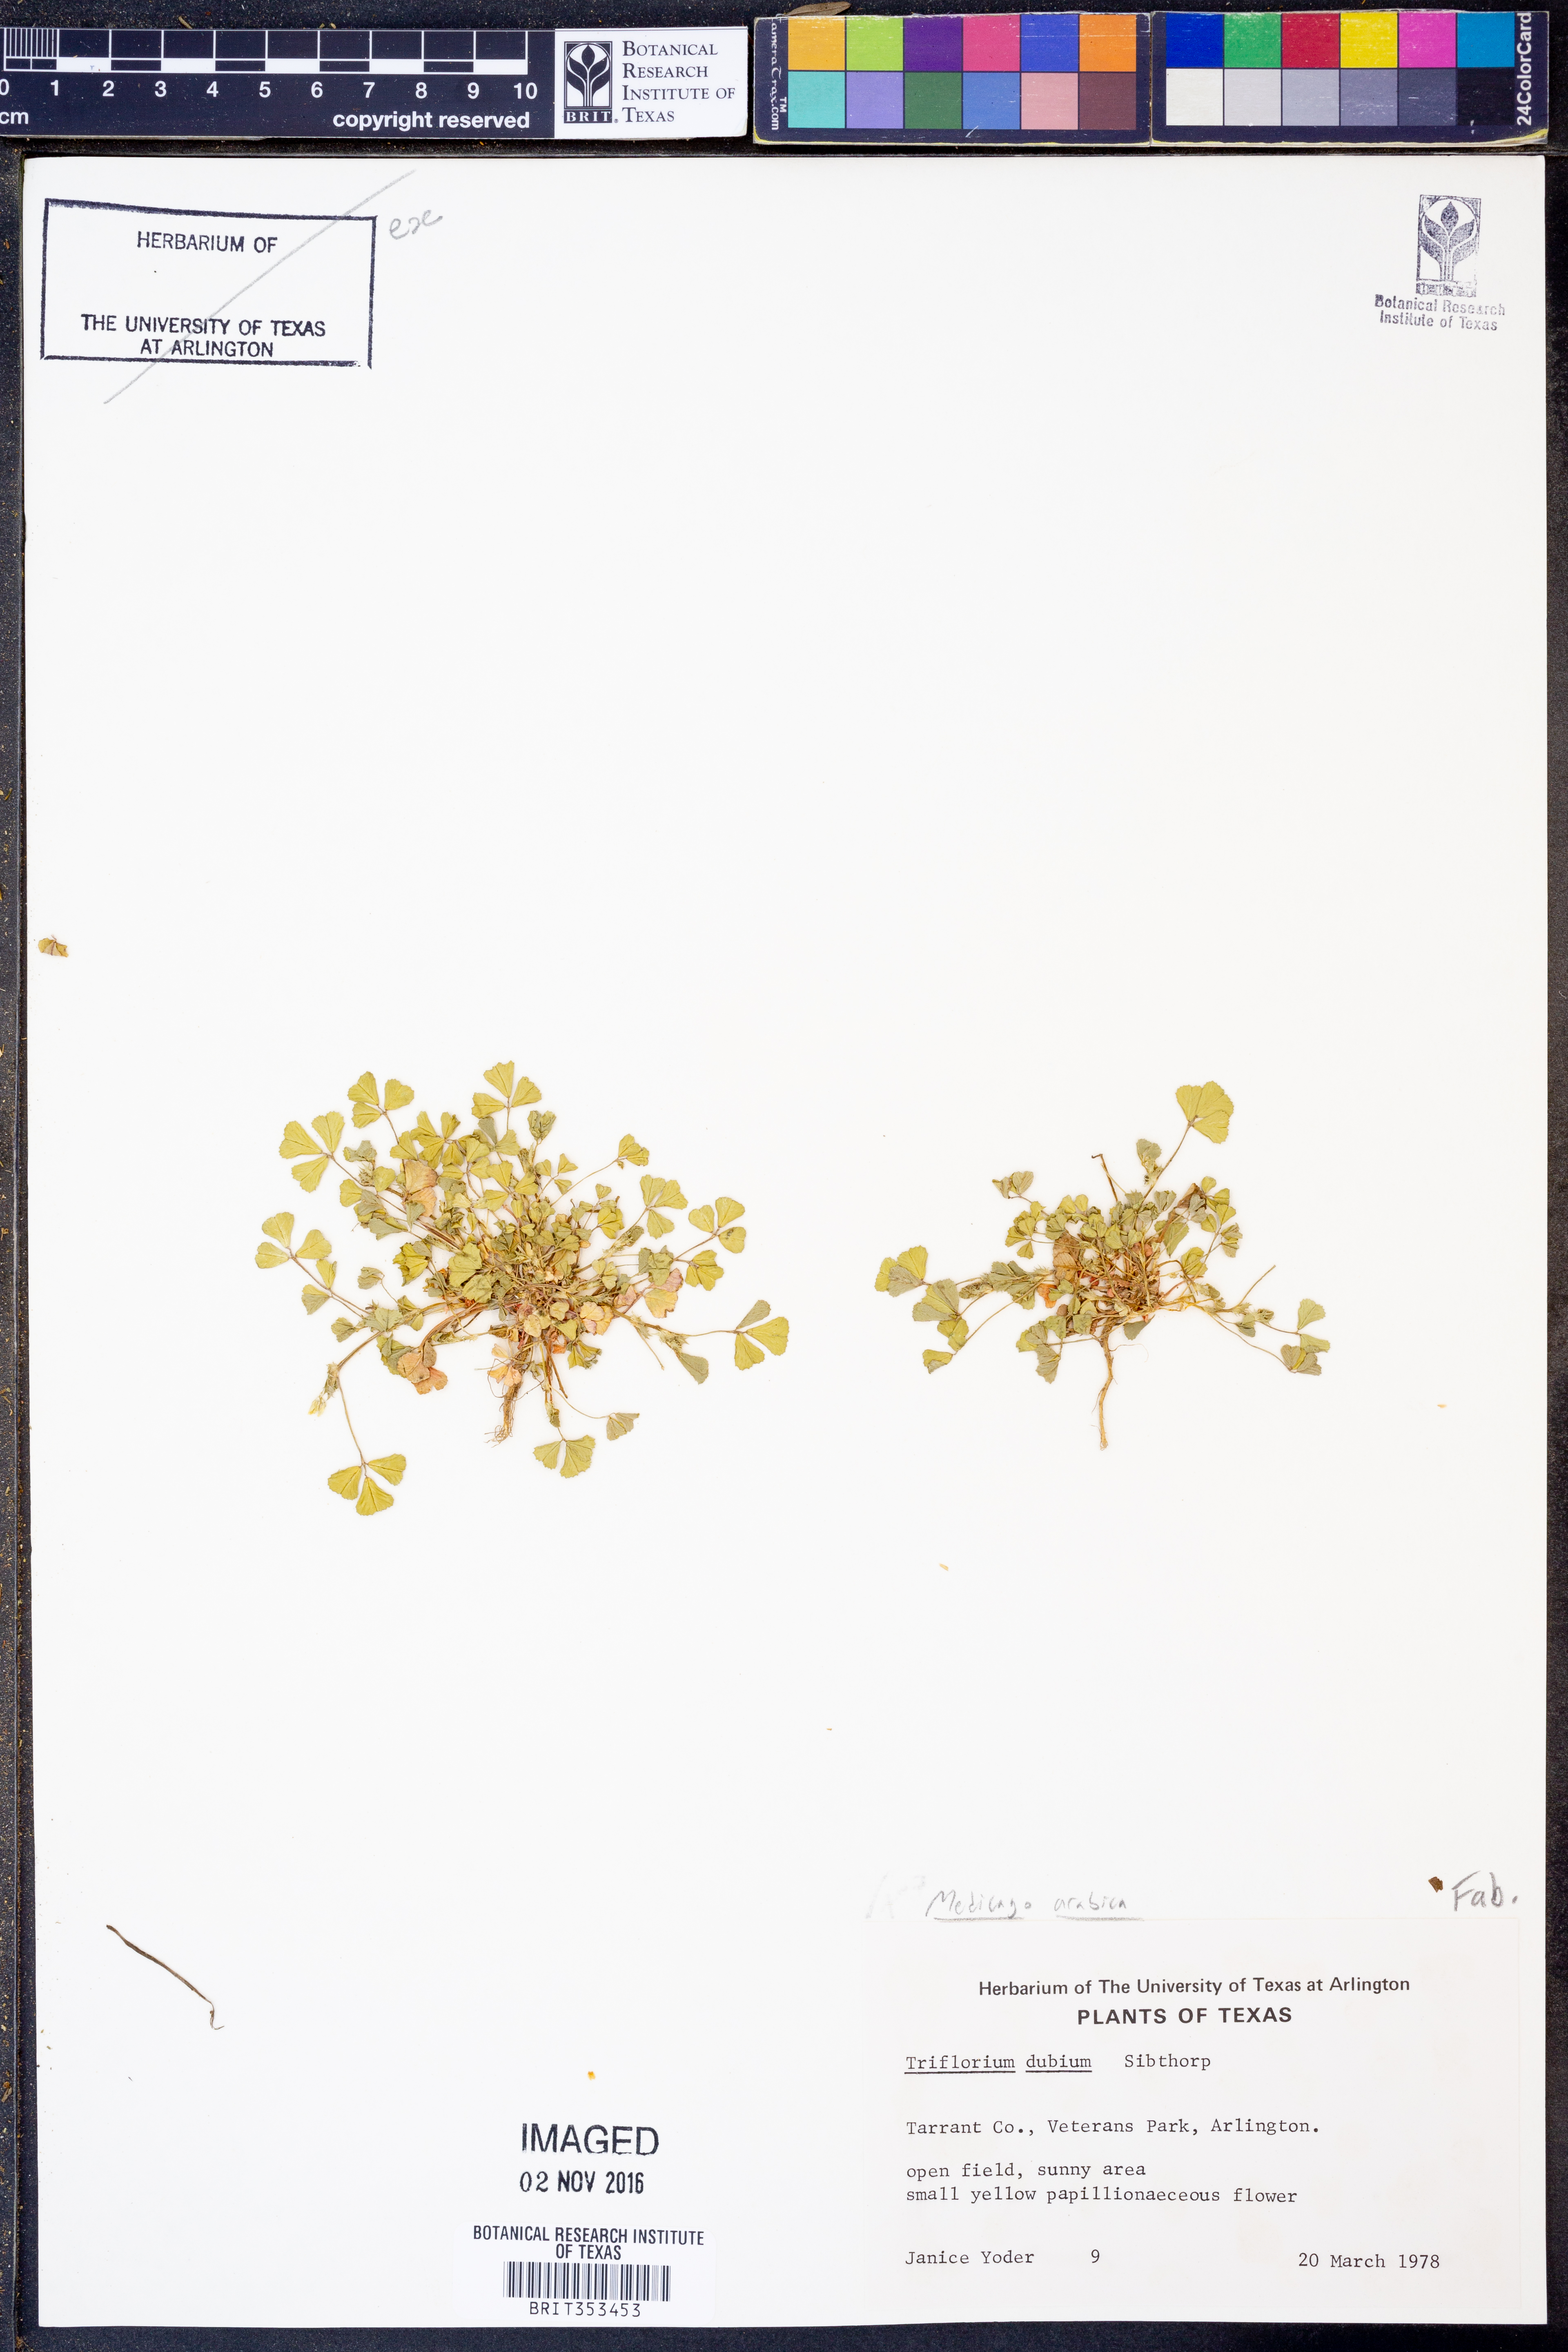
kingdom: Plantae
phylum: Tracheophyta
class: Magnoliopsida
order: Fabales
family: Fabaceae
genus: Medicago
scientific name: Medicago arabica
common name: Spotted medick
